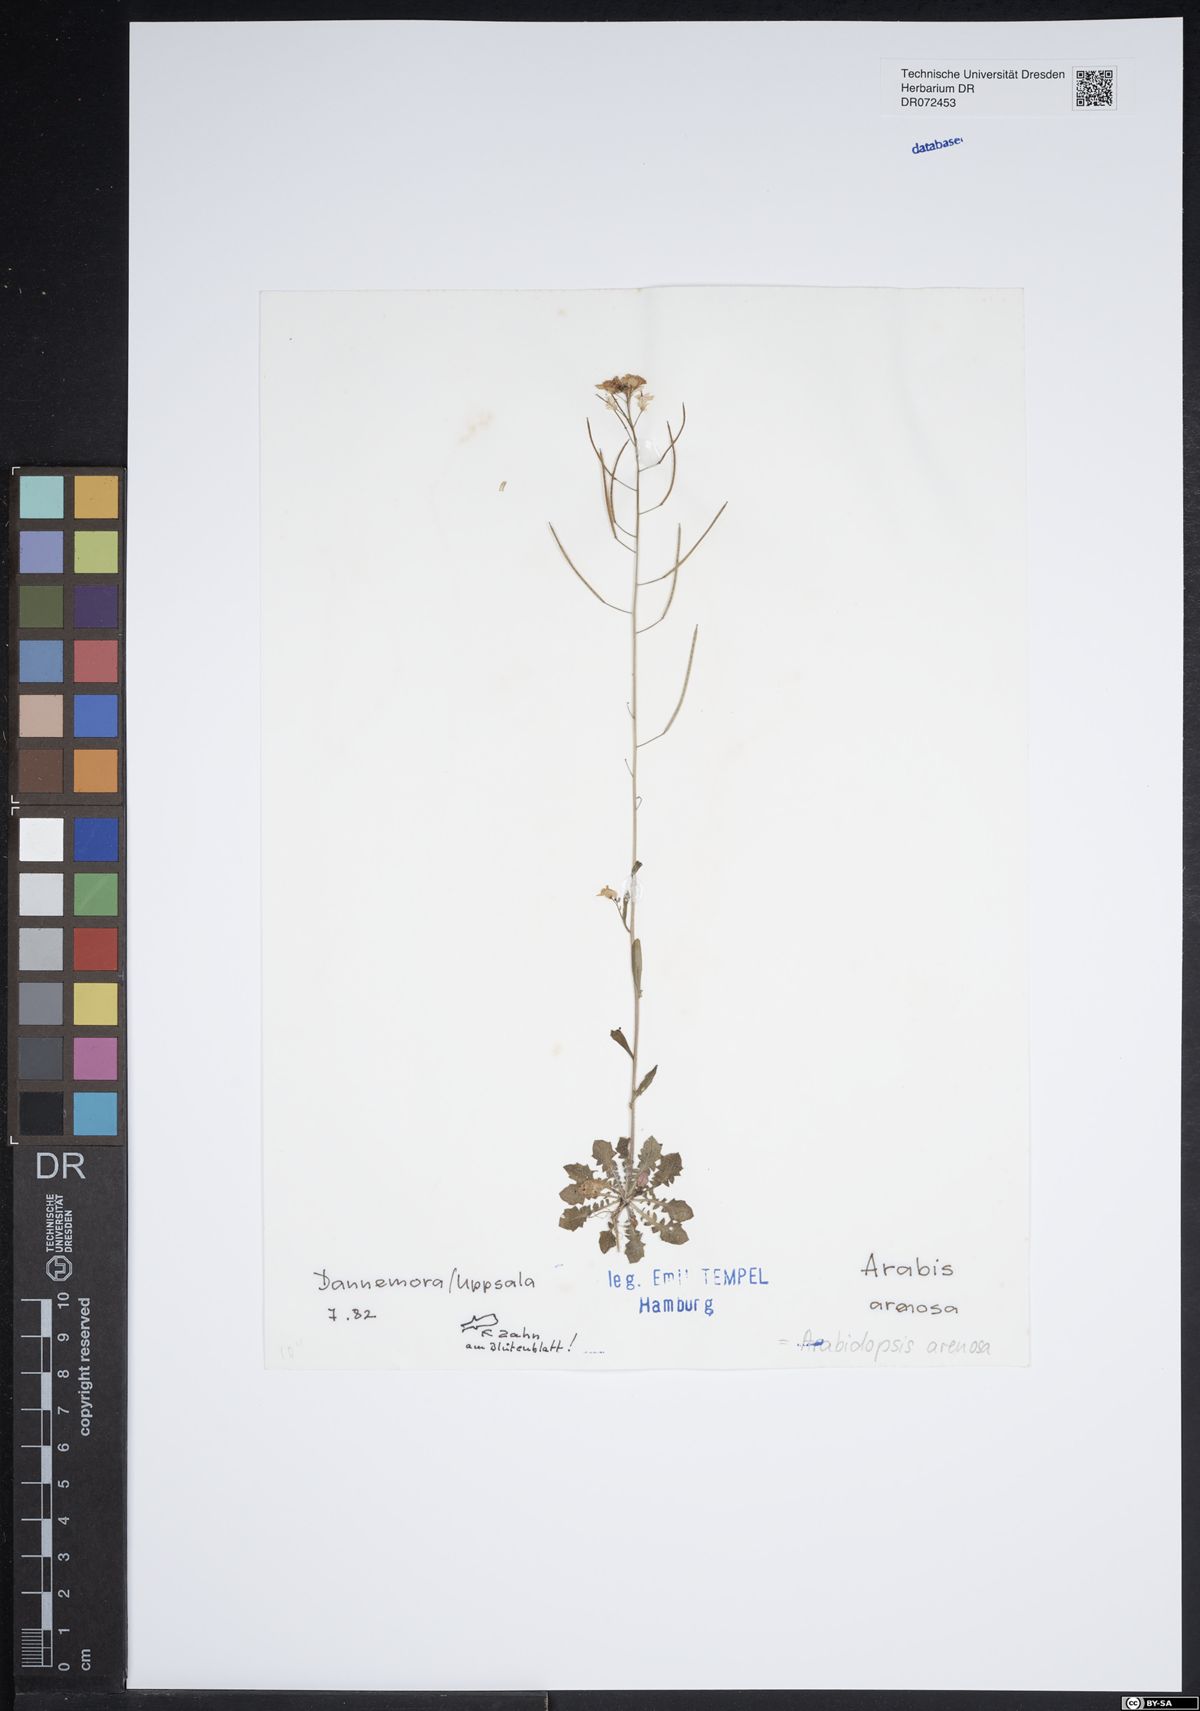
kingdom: Plantae
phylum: Tracheophyta
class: Magnoliopsida
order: Brassicales
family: Brassicaceae
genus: Arabidopsis
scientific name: Arabidopsis arenosa
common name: Sand rock-cress
